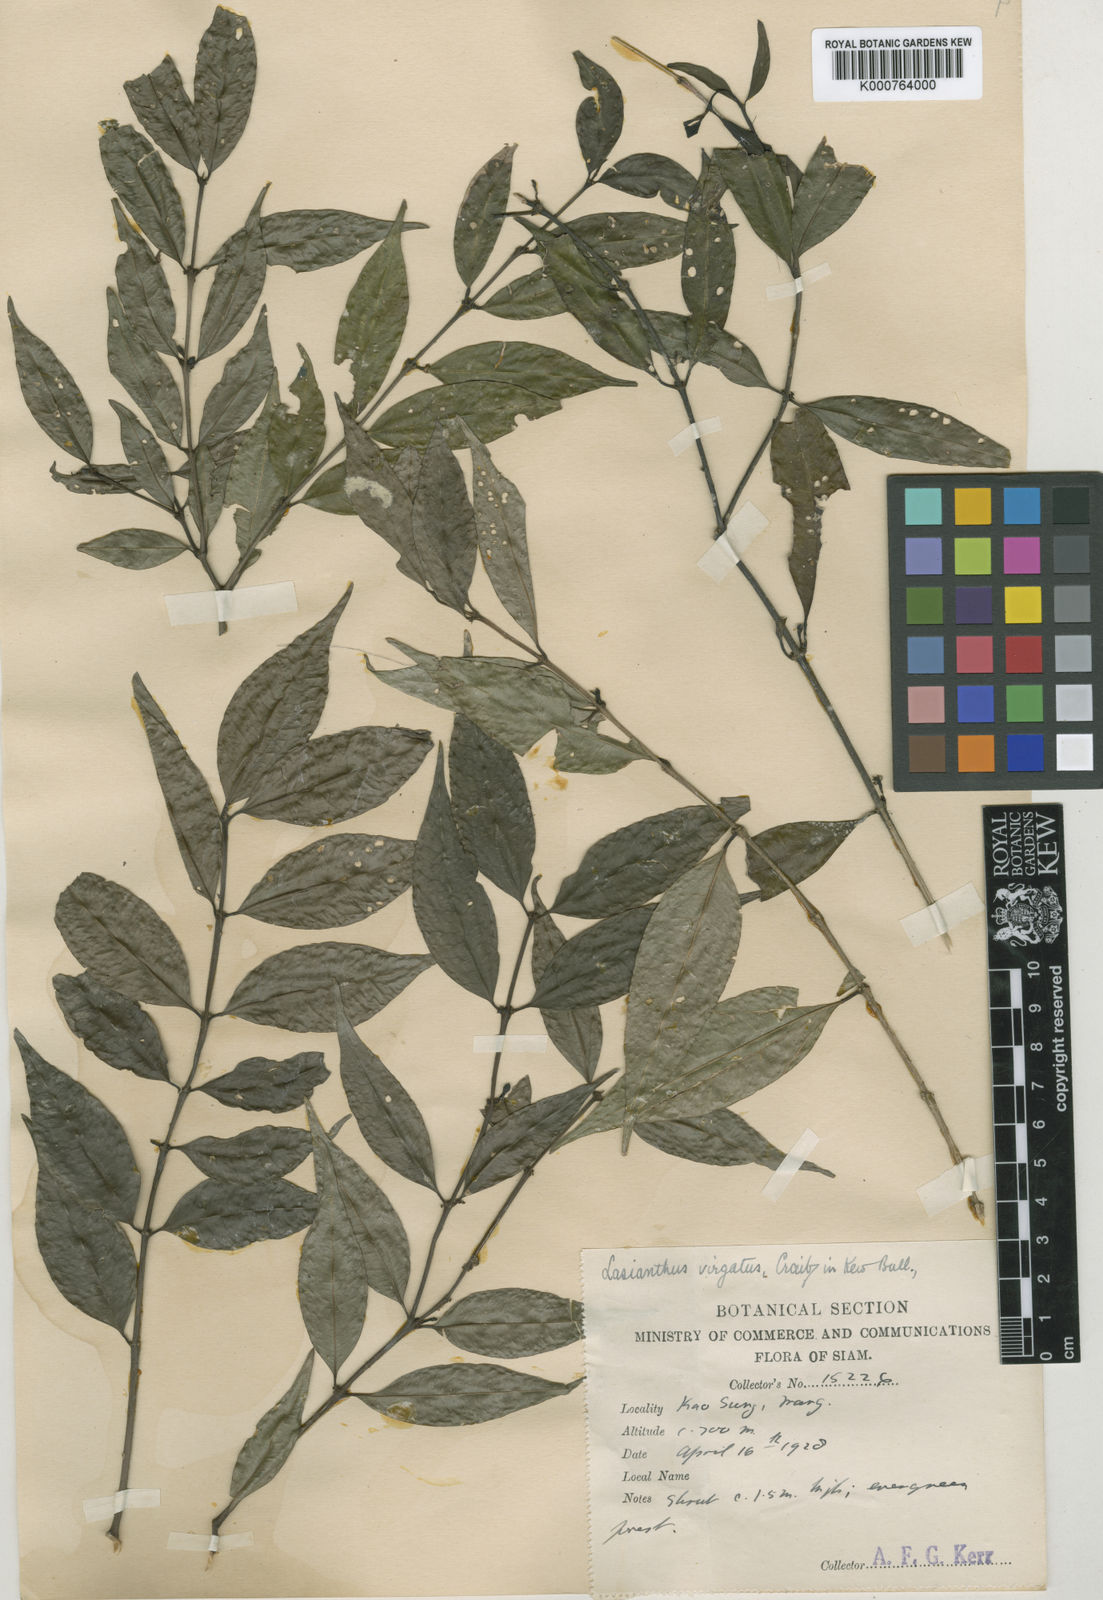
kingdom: Plantae
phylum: Tracheophyta
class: Magnoliopsida
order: Gentianales
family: Rubiaceae
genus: Paralasianthus
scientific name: Paralasianthus lowianus
